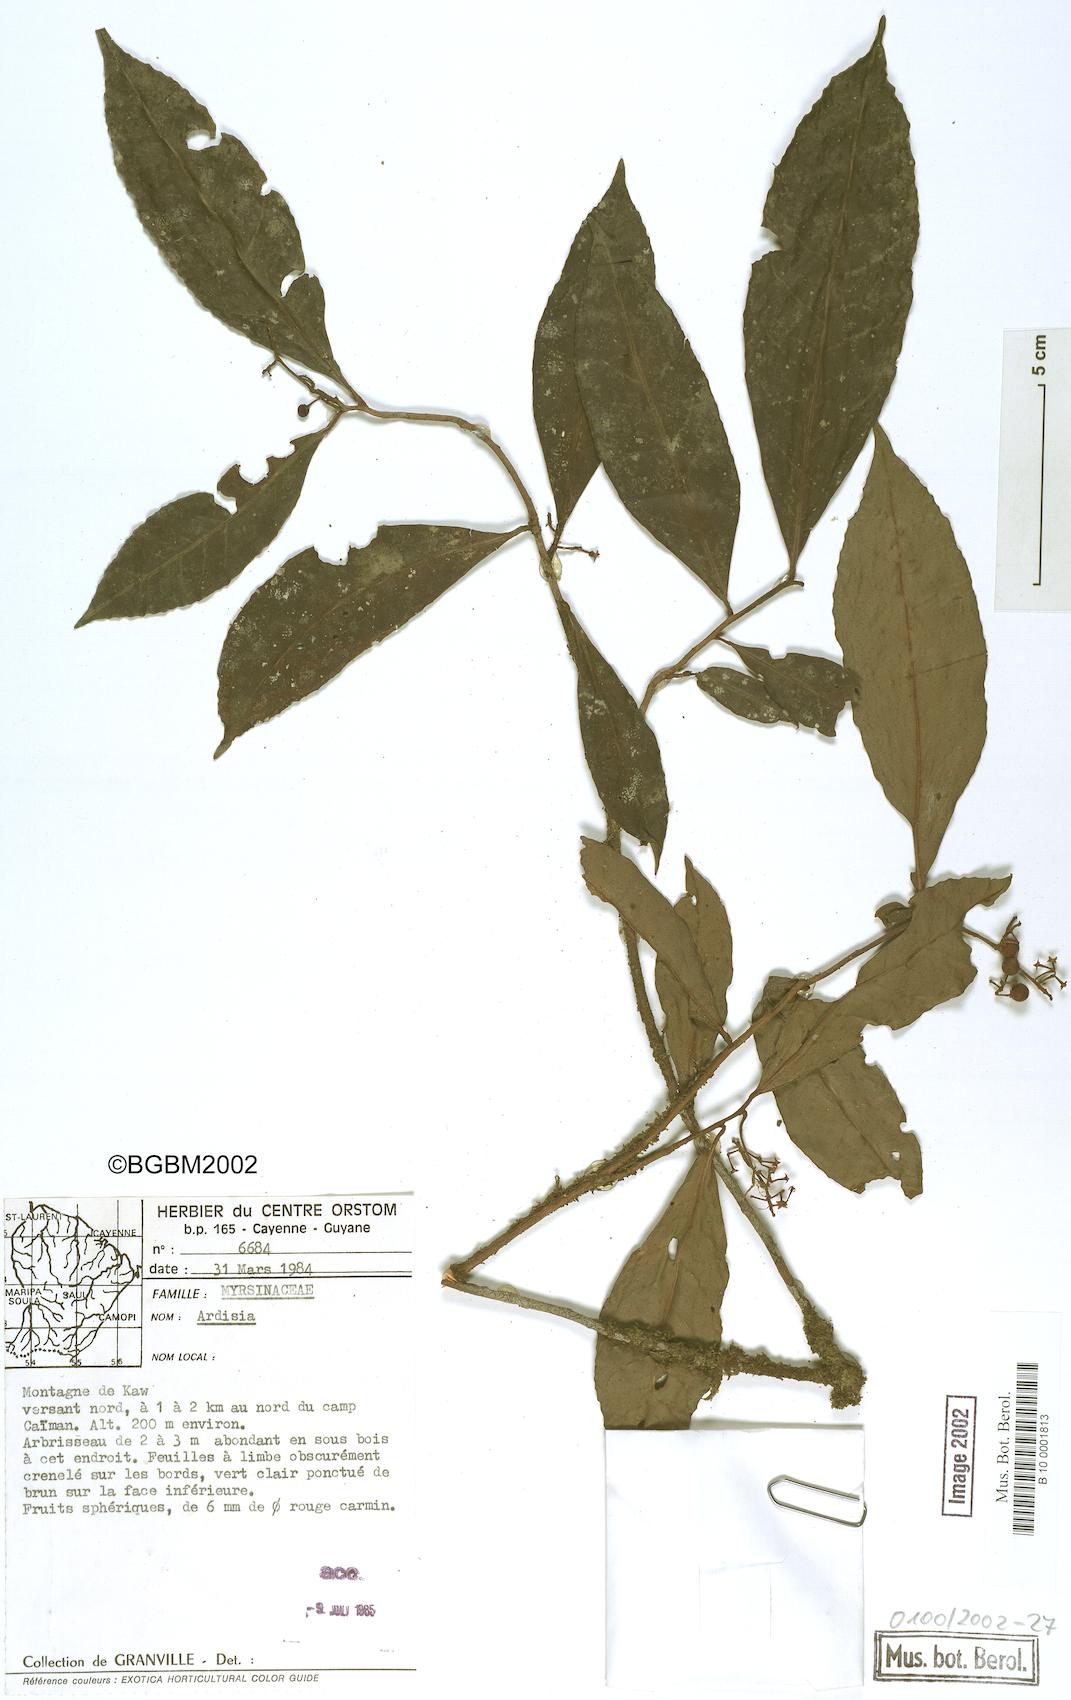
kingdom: Plantae
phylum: Tracheophyta
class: Magnoliopsida
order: Ericales
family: Primulaceae
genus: Ardisia
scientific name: Ardisia
